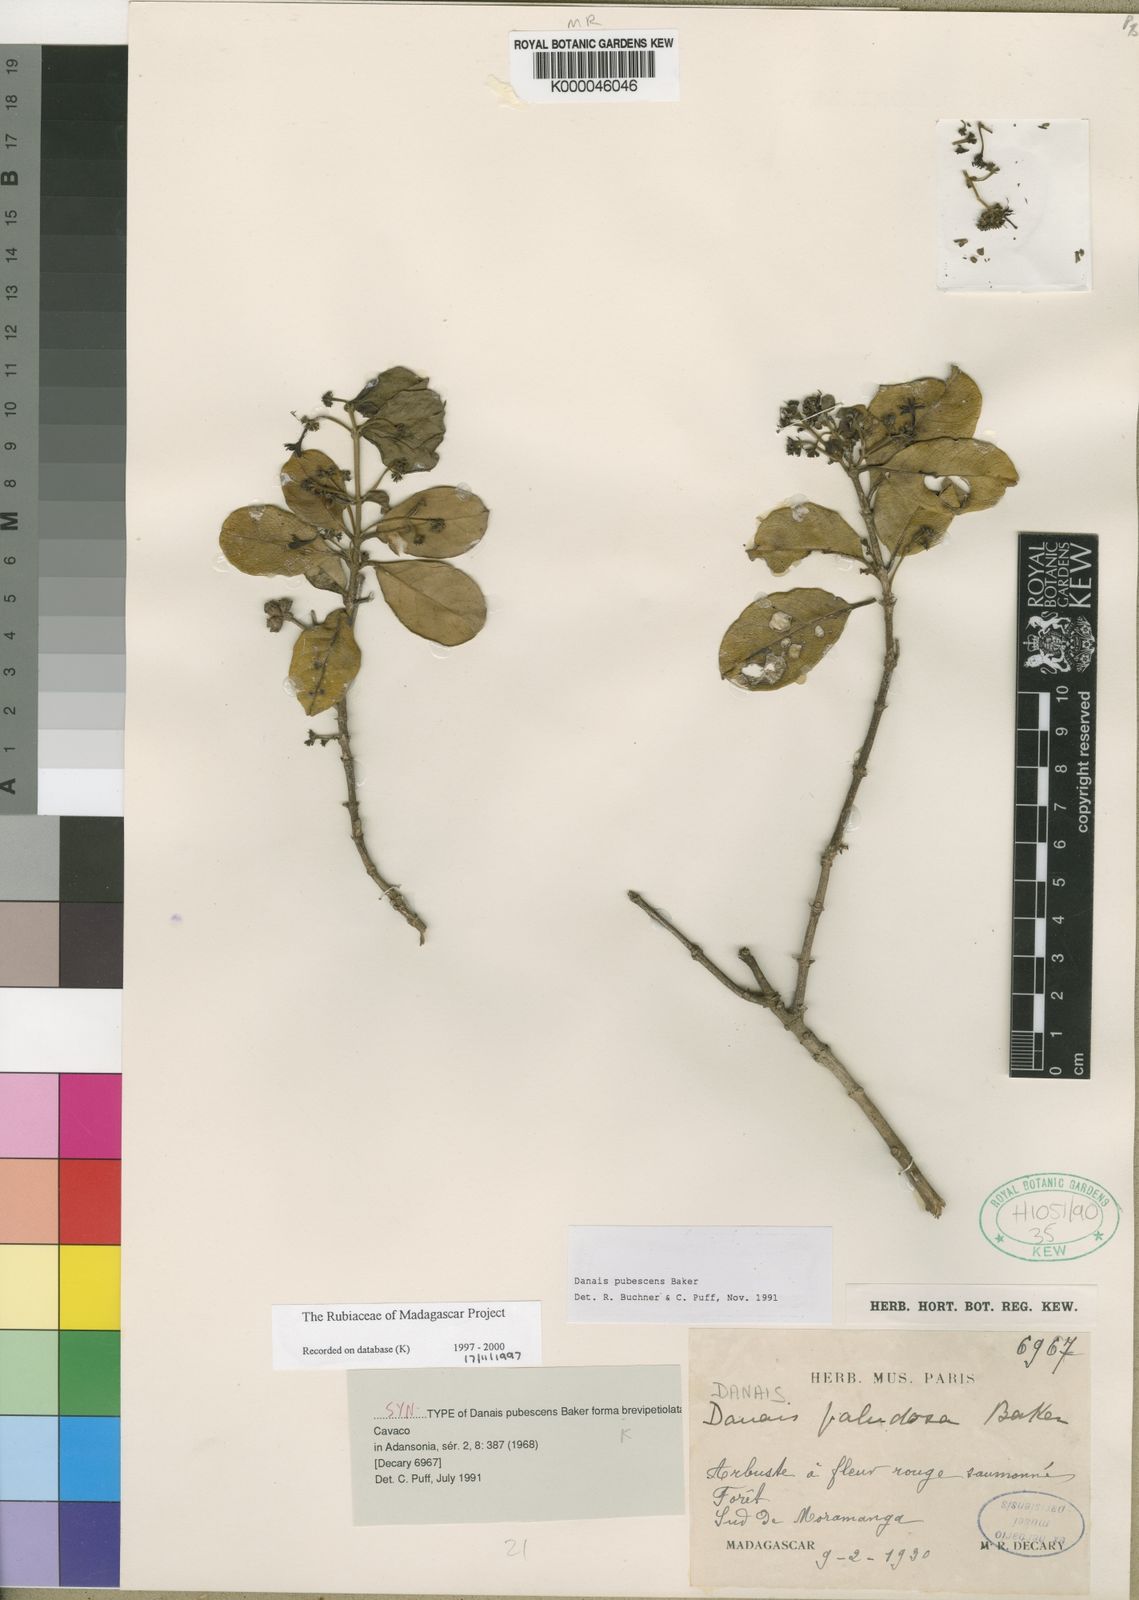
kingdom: Plantae
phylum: Tracheophyta
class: Magnoliopsida
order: Gentianales
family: Rubiaceae
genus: Danais
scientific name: Danais pubescens
